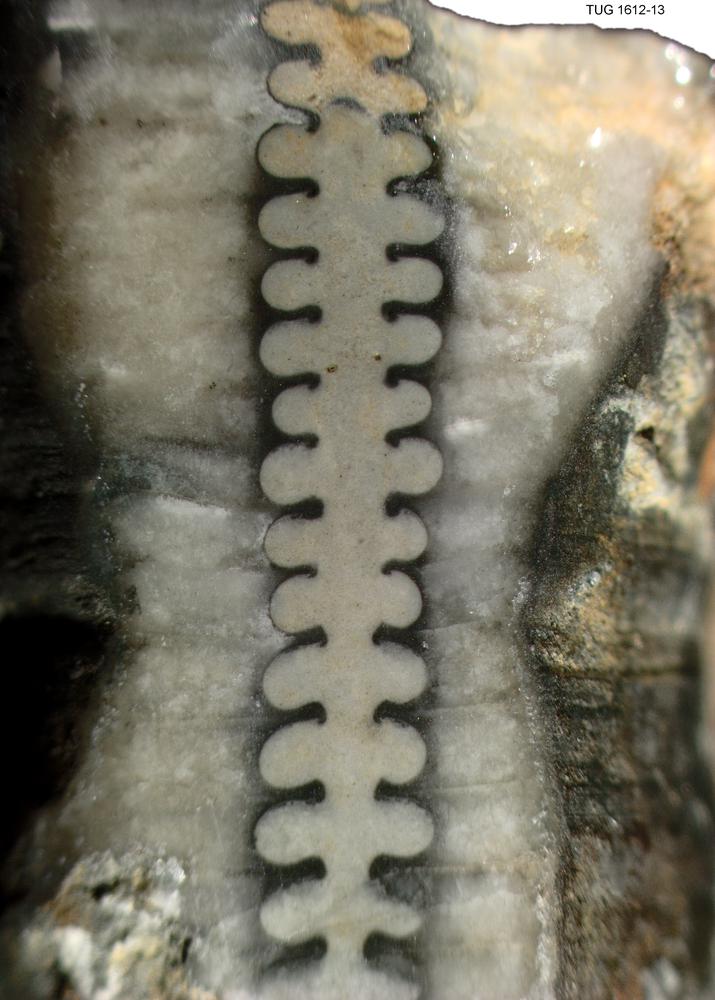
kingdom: Animalia
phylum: Mollusca
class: Cephalopoda
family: Westonoceratidae
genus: Hemibeloitoceras
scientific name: Hemibeloitoceras arduum
